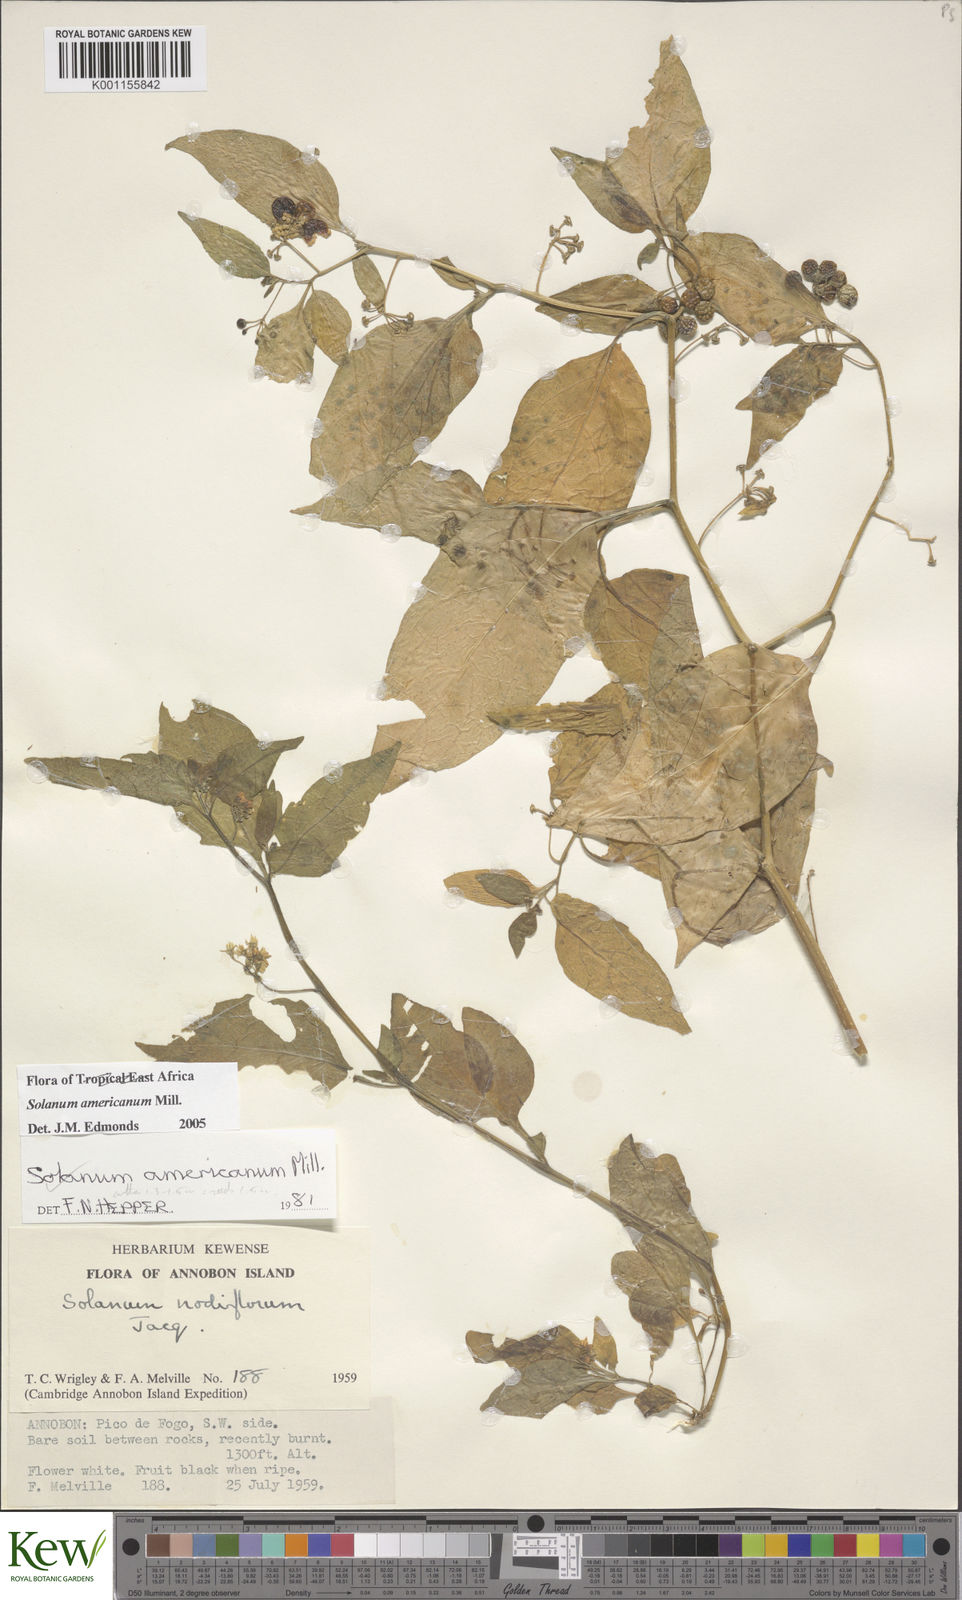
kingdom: Plantae
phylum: Tracheophyta
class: Magnoliopsida
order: Solanales
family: Solanaceae
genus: Solanum
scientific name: Solanum scabrum
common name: Garden-huckleberry
